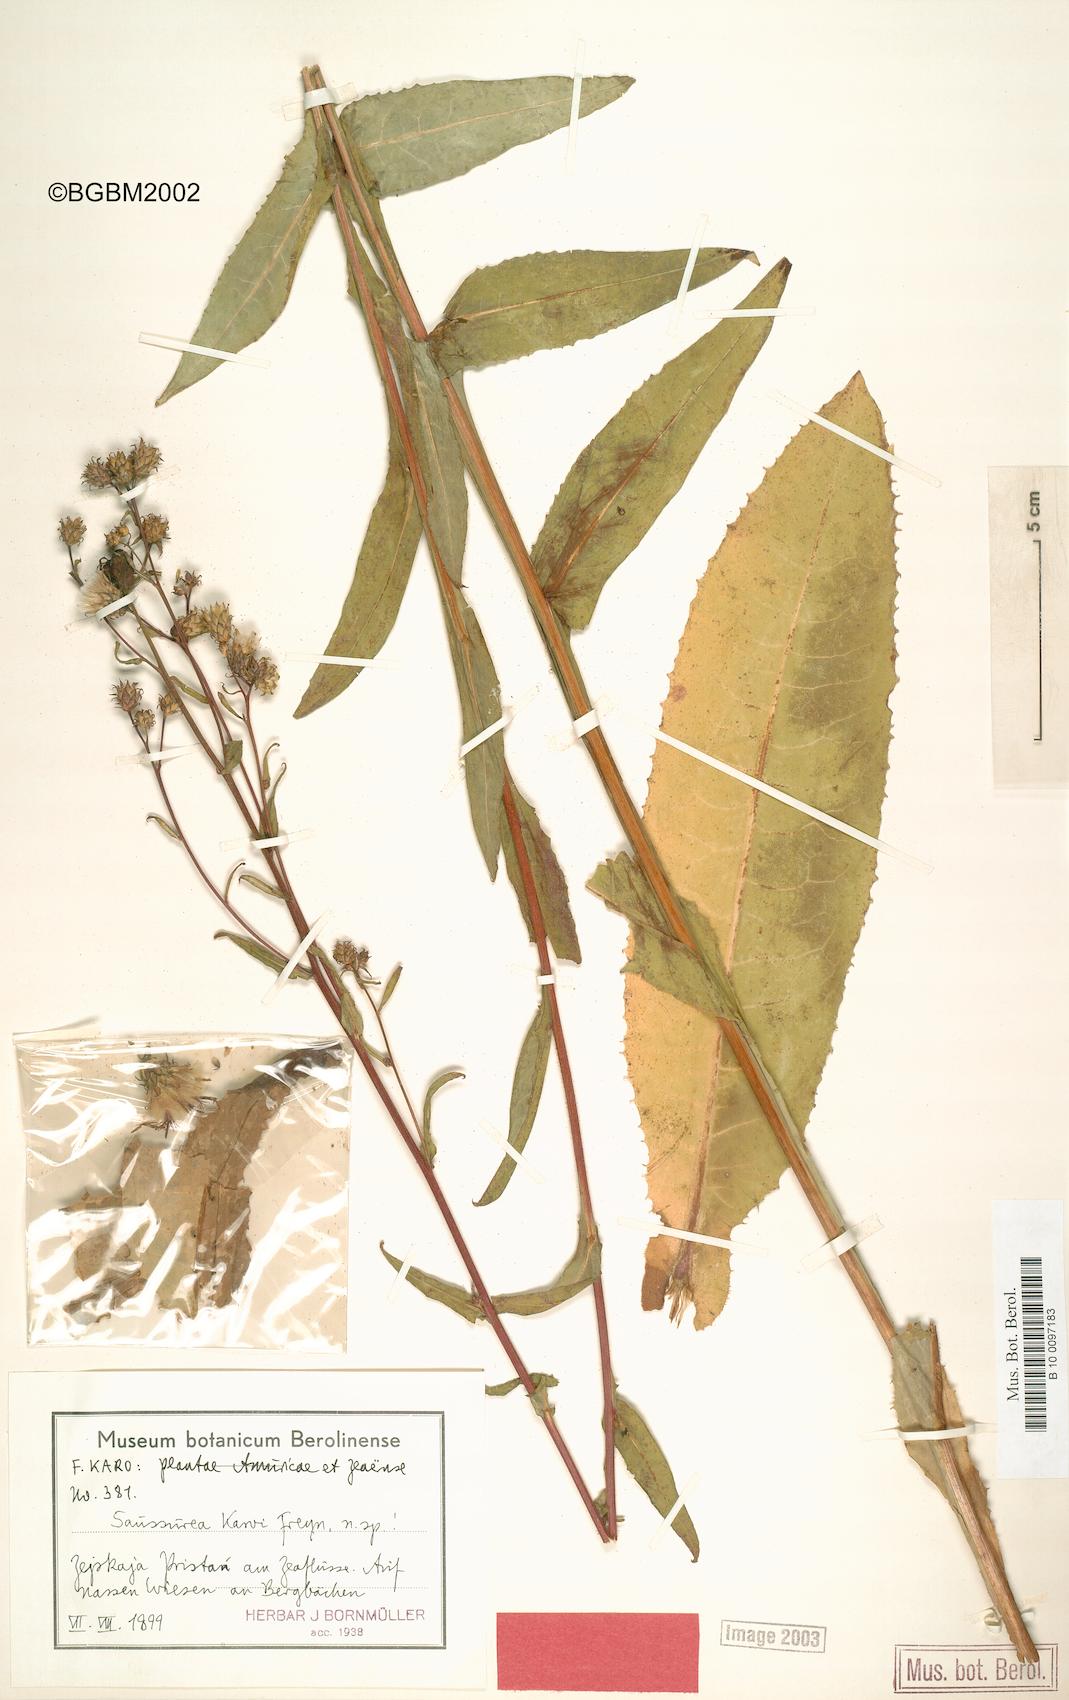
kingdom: Plantae
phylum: Tracheophyta
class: Magnoliopsida
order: Asterales
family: Asteraceae
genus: Saussurea
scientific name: Saussurea umbrosa
